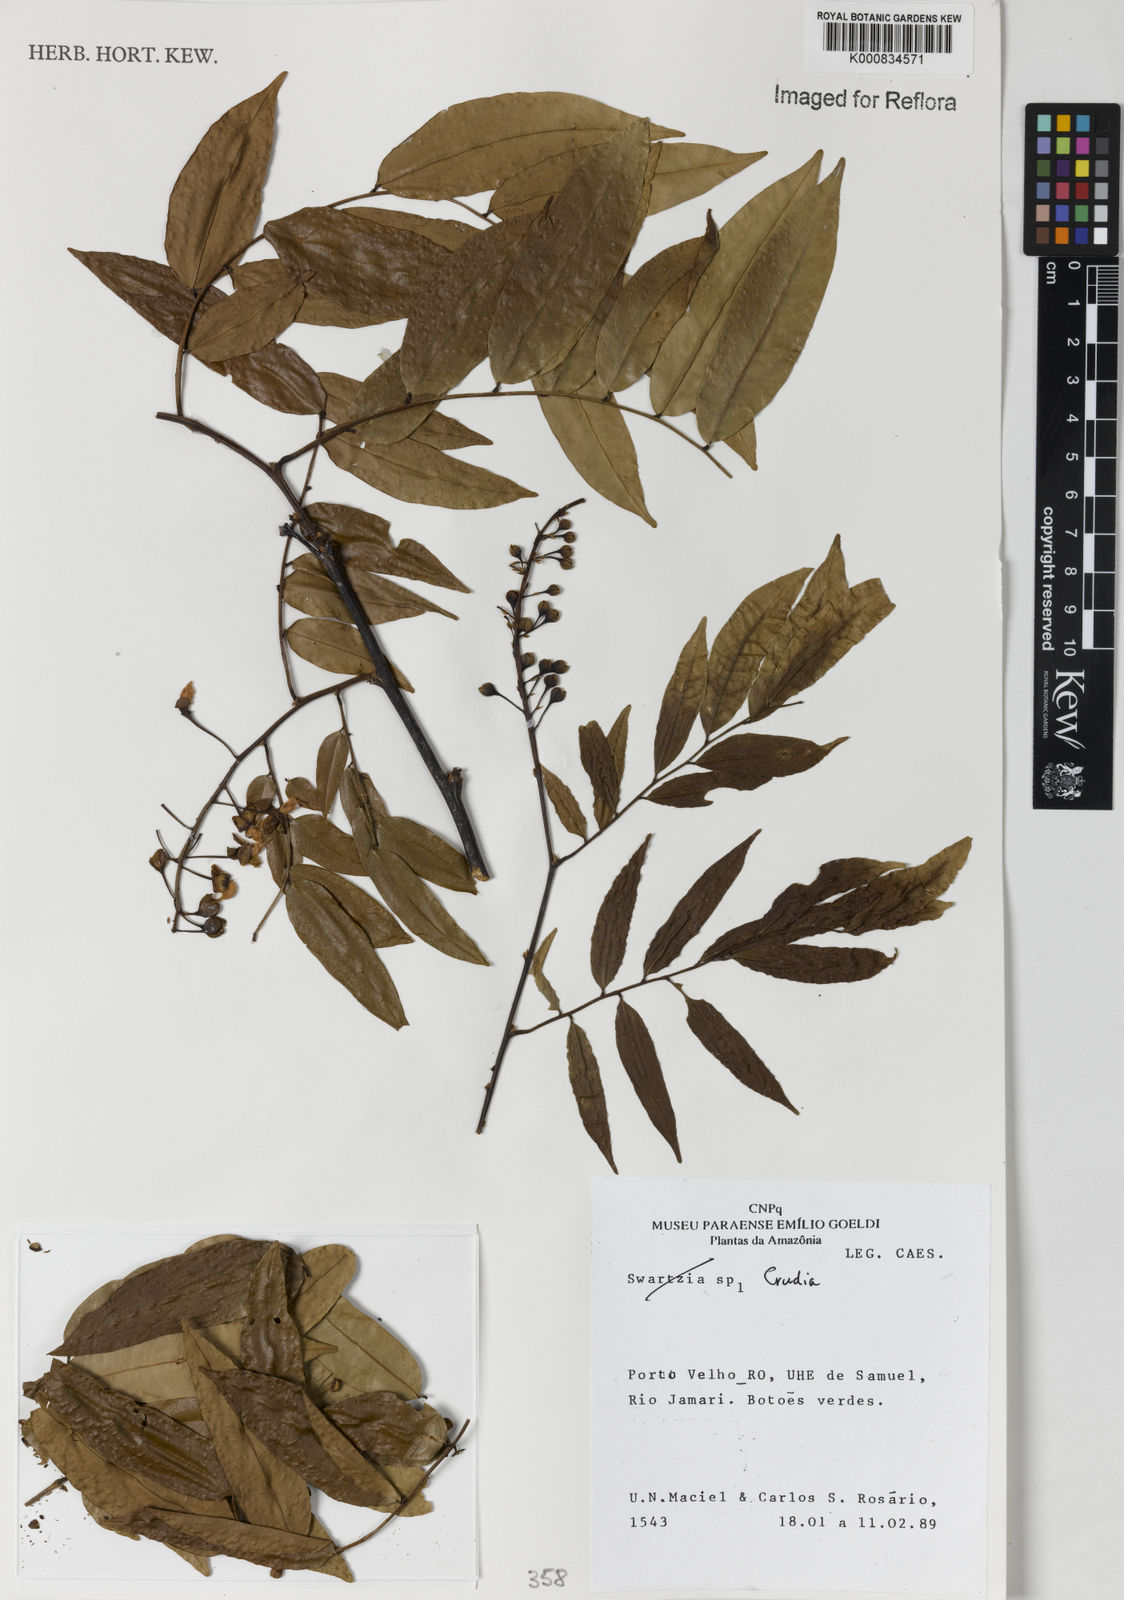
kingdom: Plantae
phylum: Tracheophyta
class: Magnoliopsida
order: Fabales
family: Fabaceae
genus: Crudia
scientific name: Crudia
